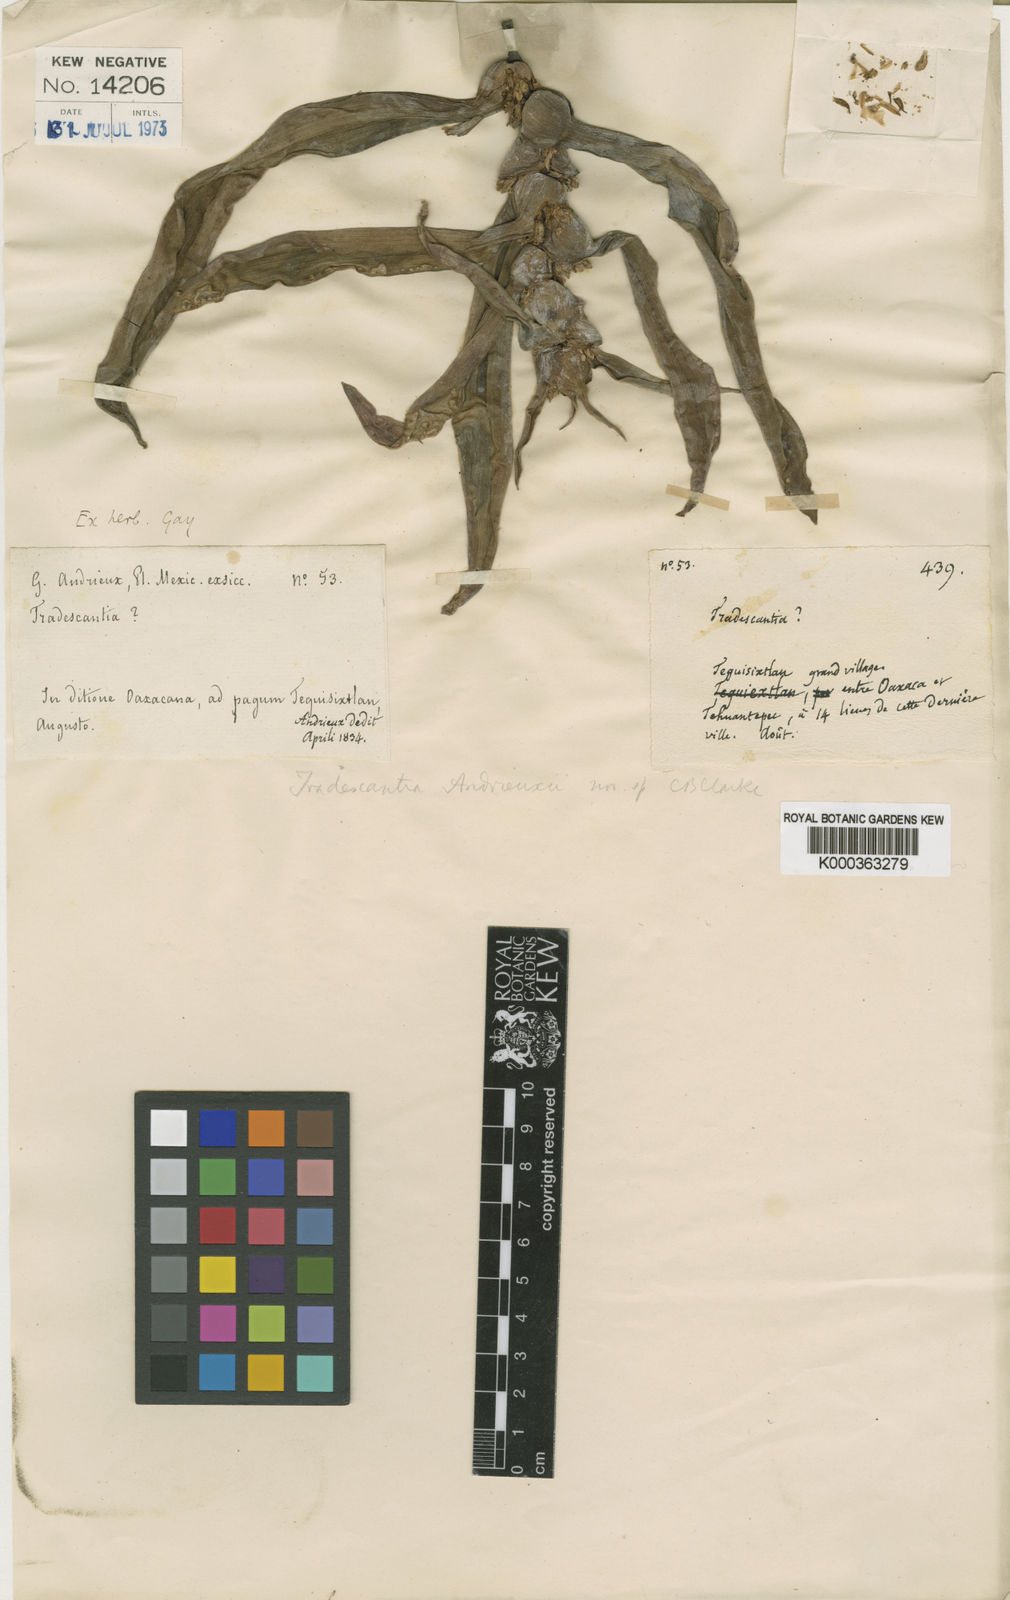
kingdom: Plantae
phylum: Tracheophyta
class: Liliopsida
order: Commelinales
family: Commelinaceae
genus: Tradescantia
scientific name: Tradescantia andrieuxii
